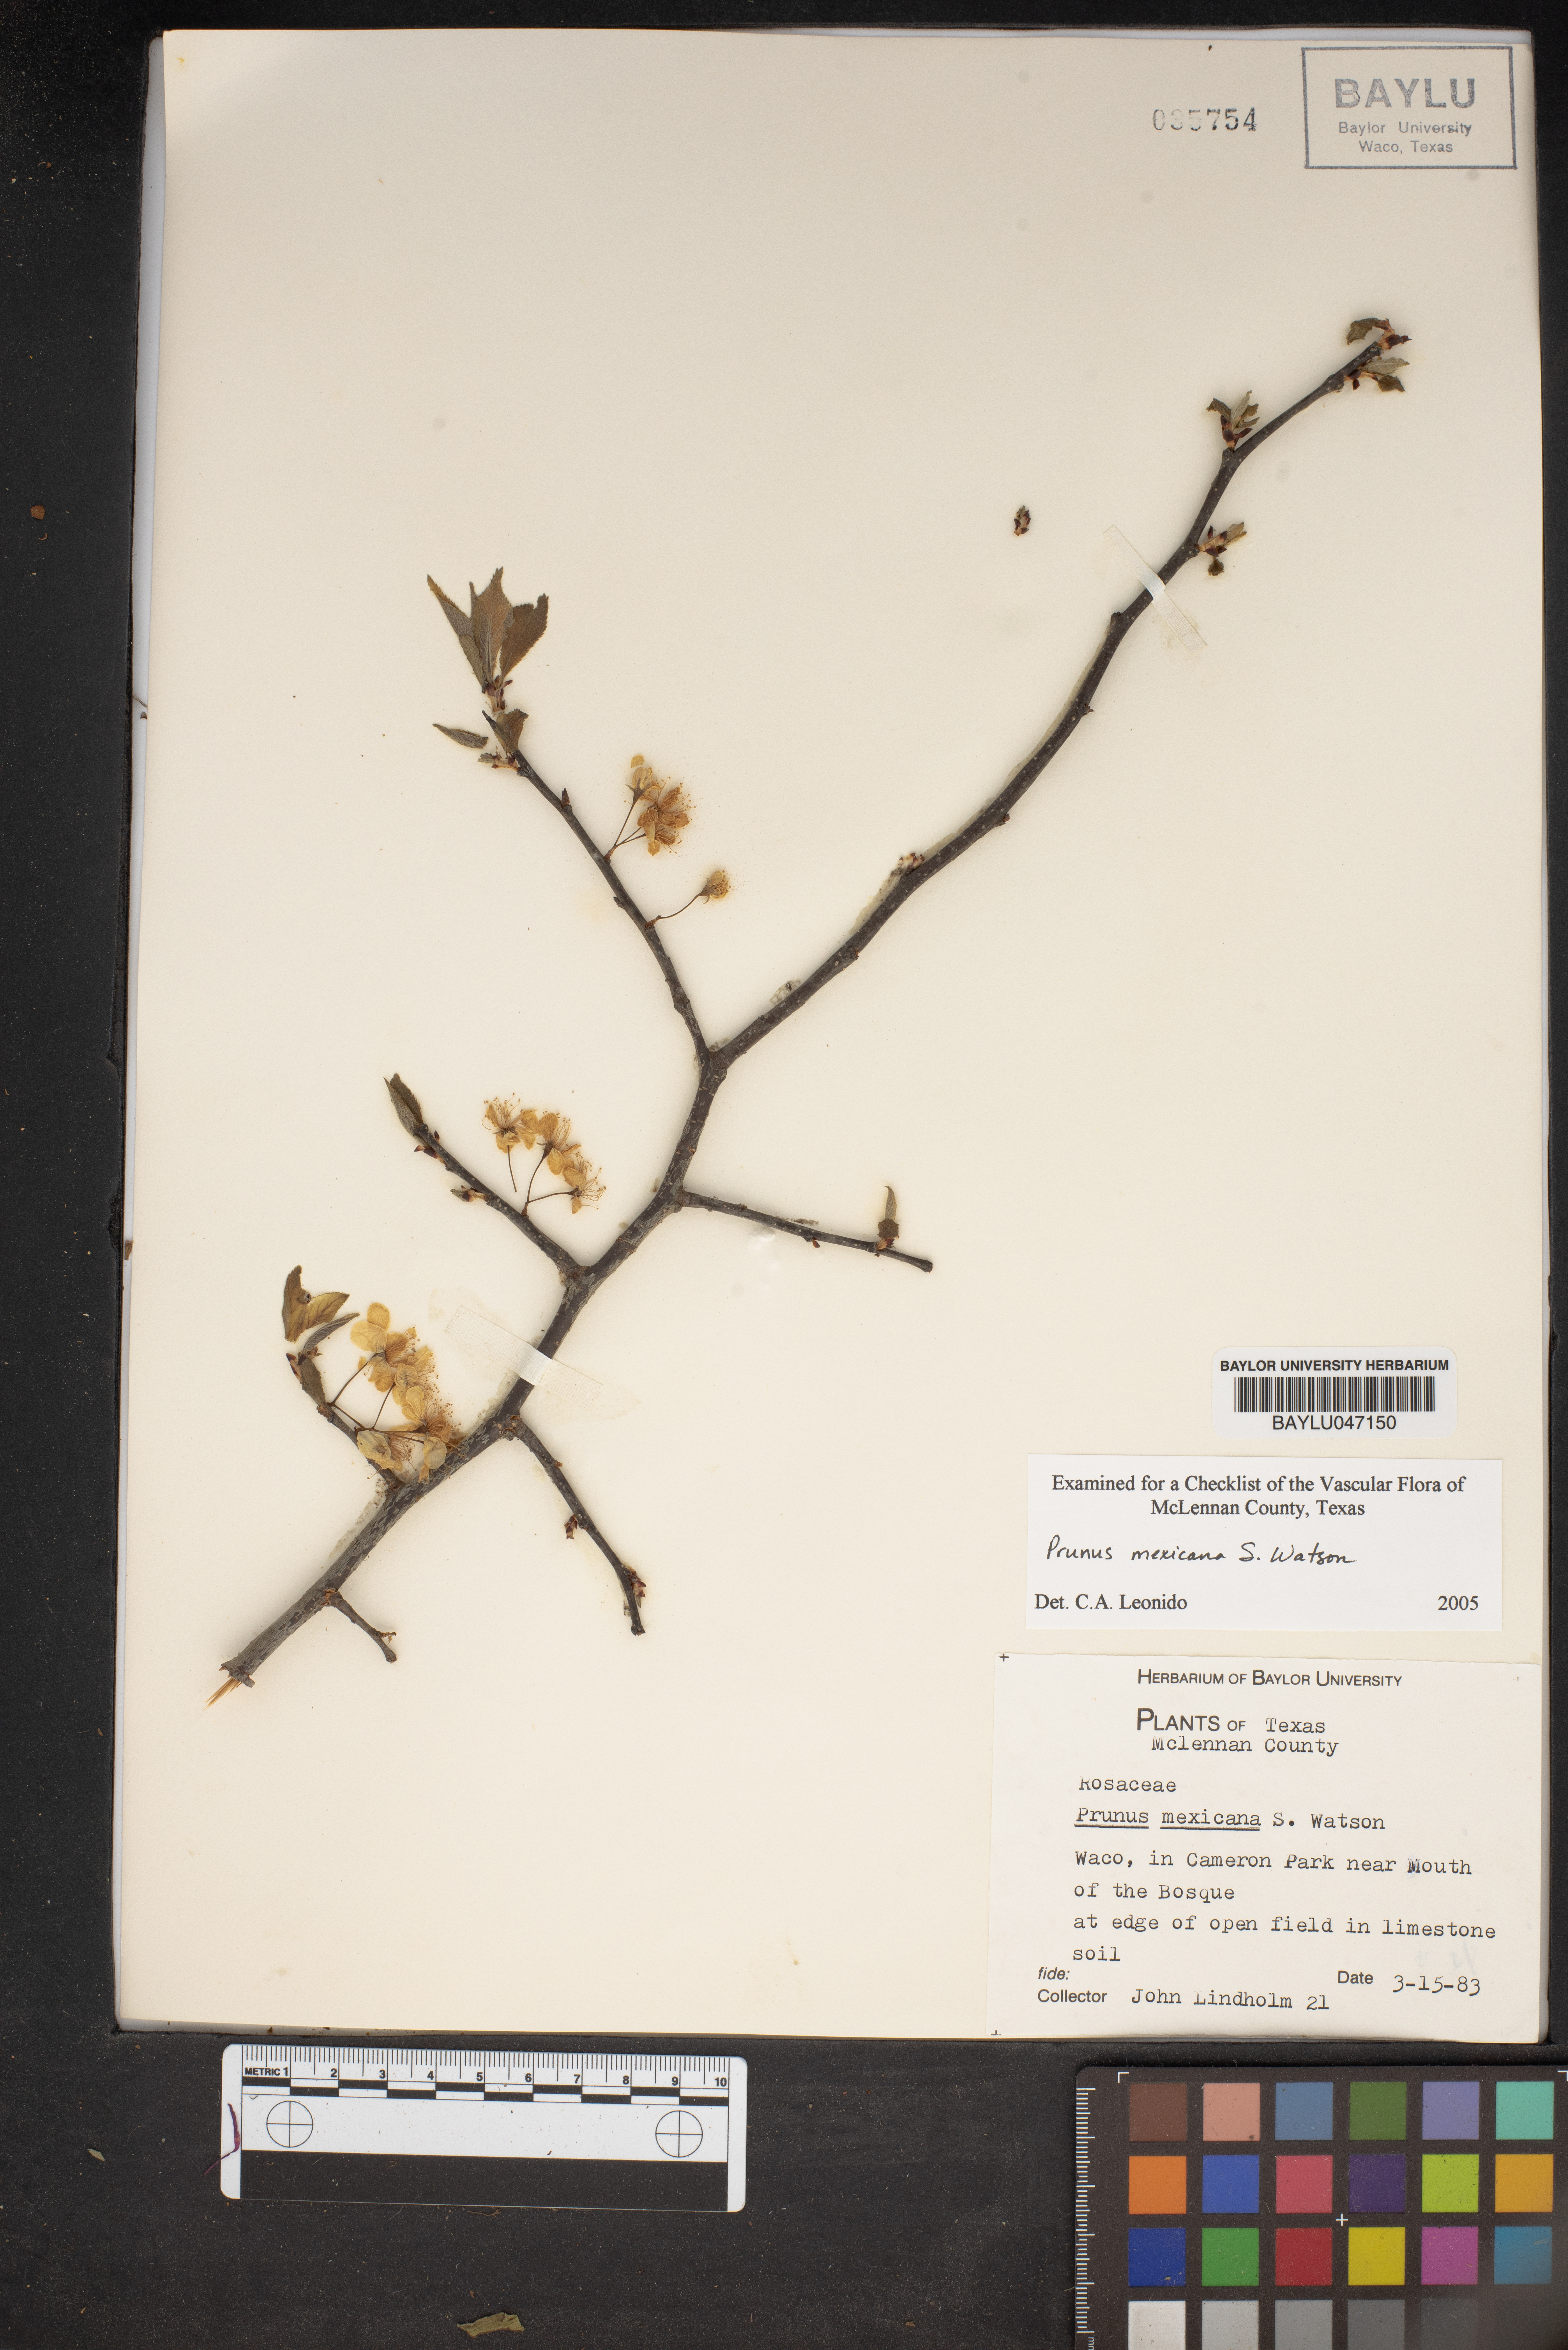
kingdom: Plantae
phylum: Tracheophyta
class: Magnoliopsida
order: Rosales
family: Rosaceae
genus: Prunus
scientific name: Prunus mexicana
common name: Mexican plum
